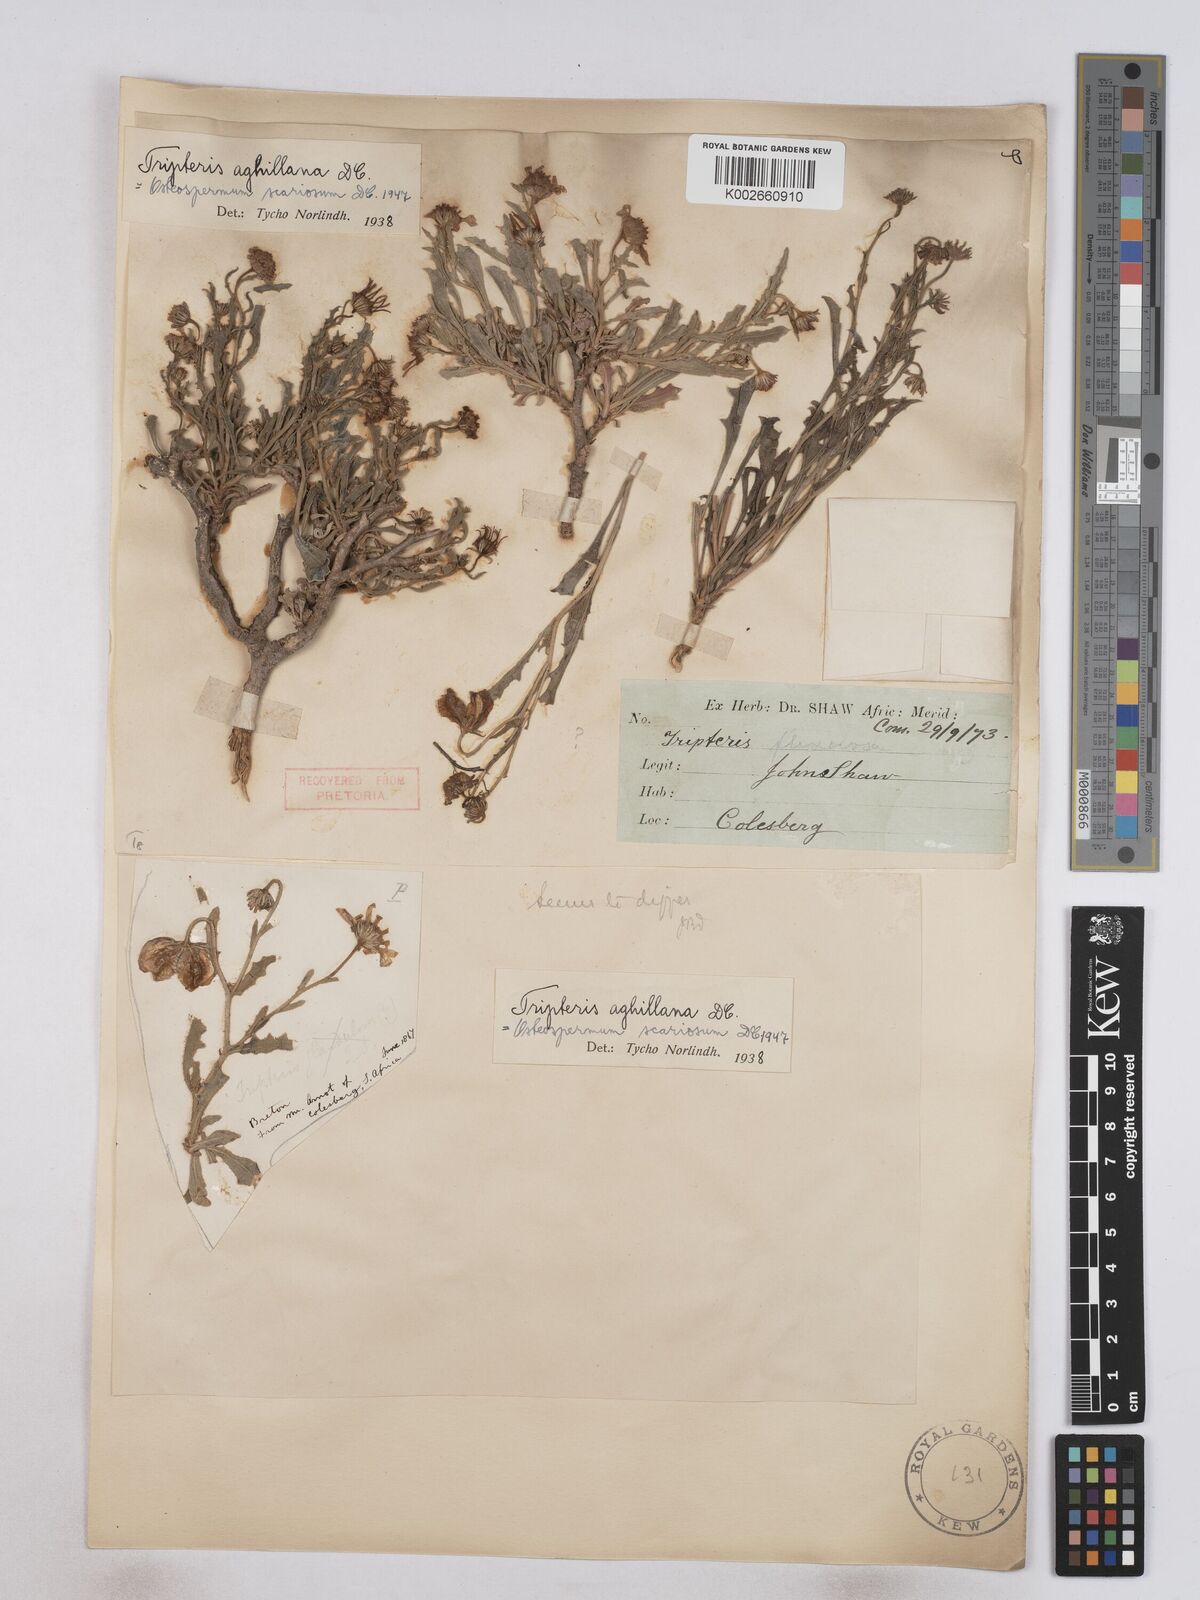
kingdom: Plantae
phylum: Tracheophyta
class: Magnoliopsida
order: Asterales
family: Asteraceae
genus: Osteospermum
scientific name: Osteospermum scariosum
